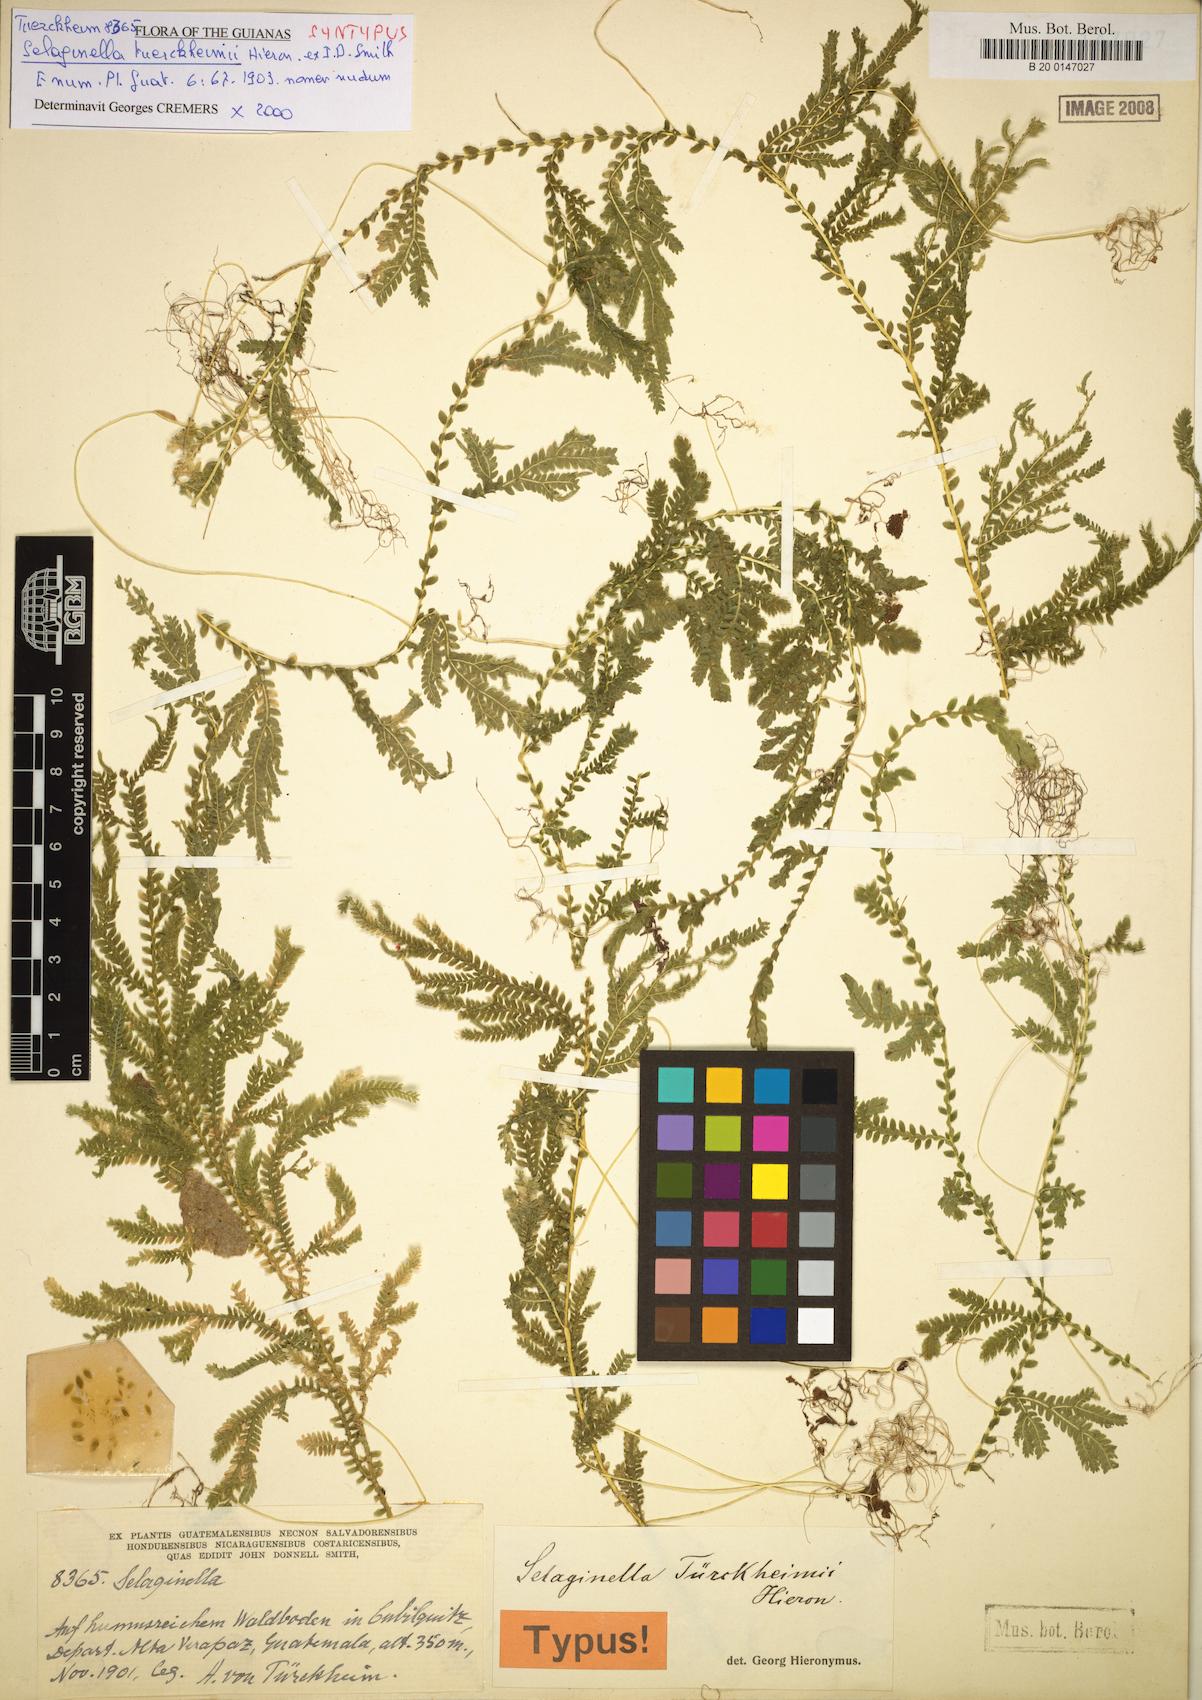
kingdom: Plantae
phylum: Tracheophyta
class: Lycopodiopsida
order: Selaginellales
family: Selaginellaceae
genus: Selaginella
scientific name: Selaginella sertata
